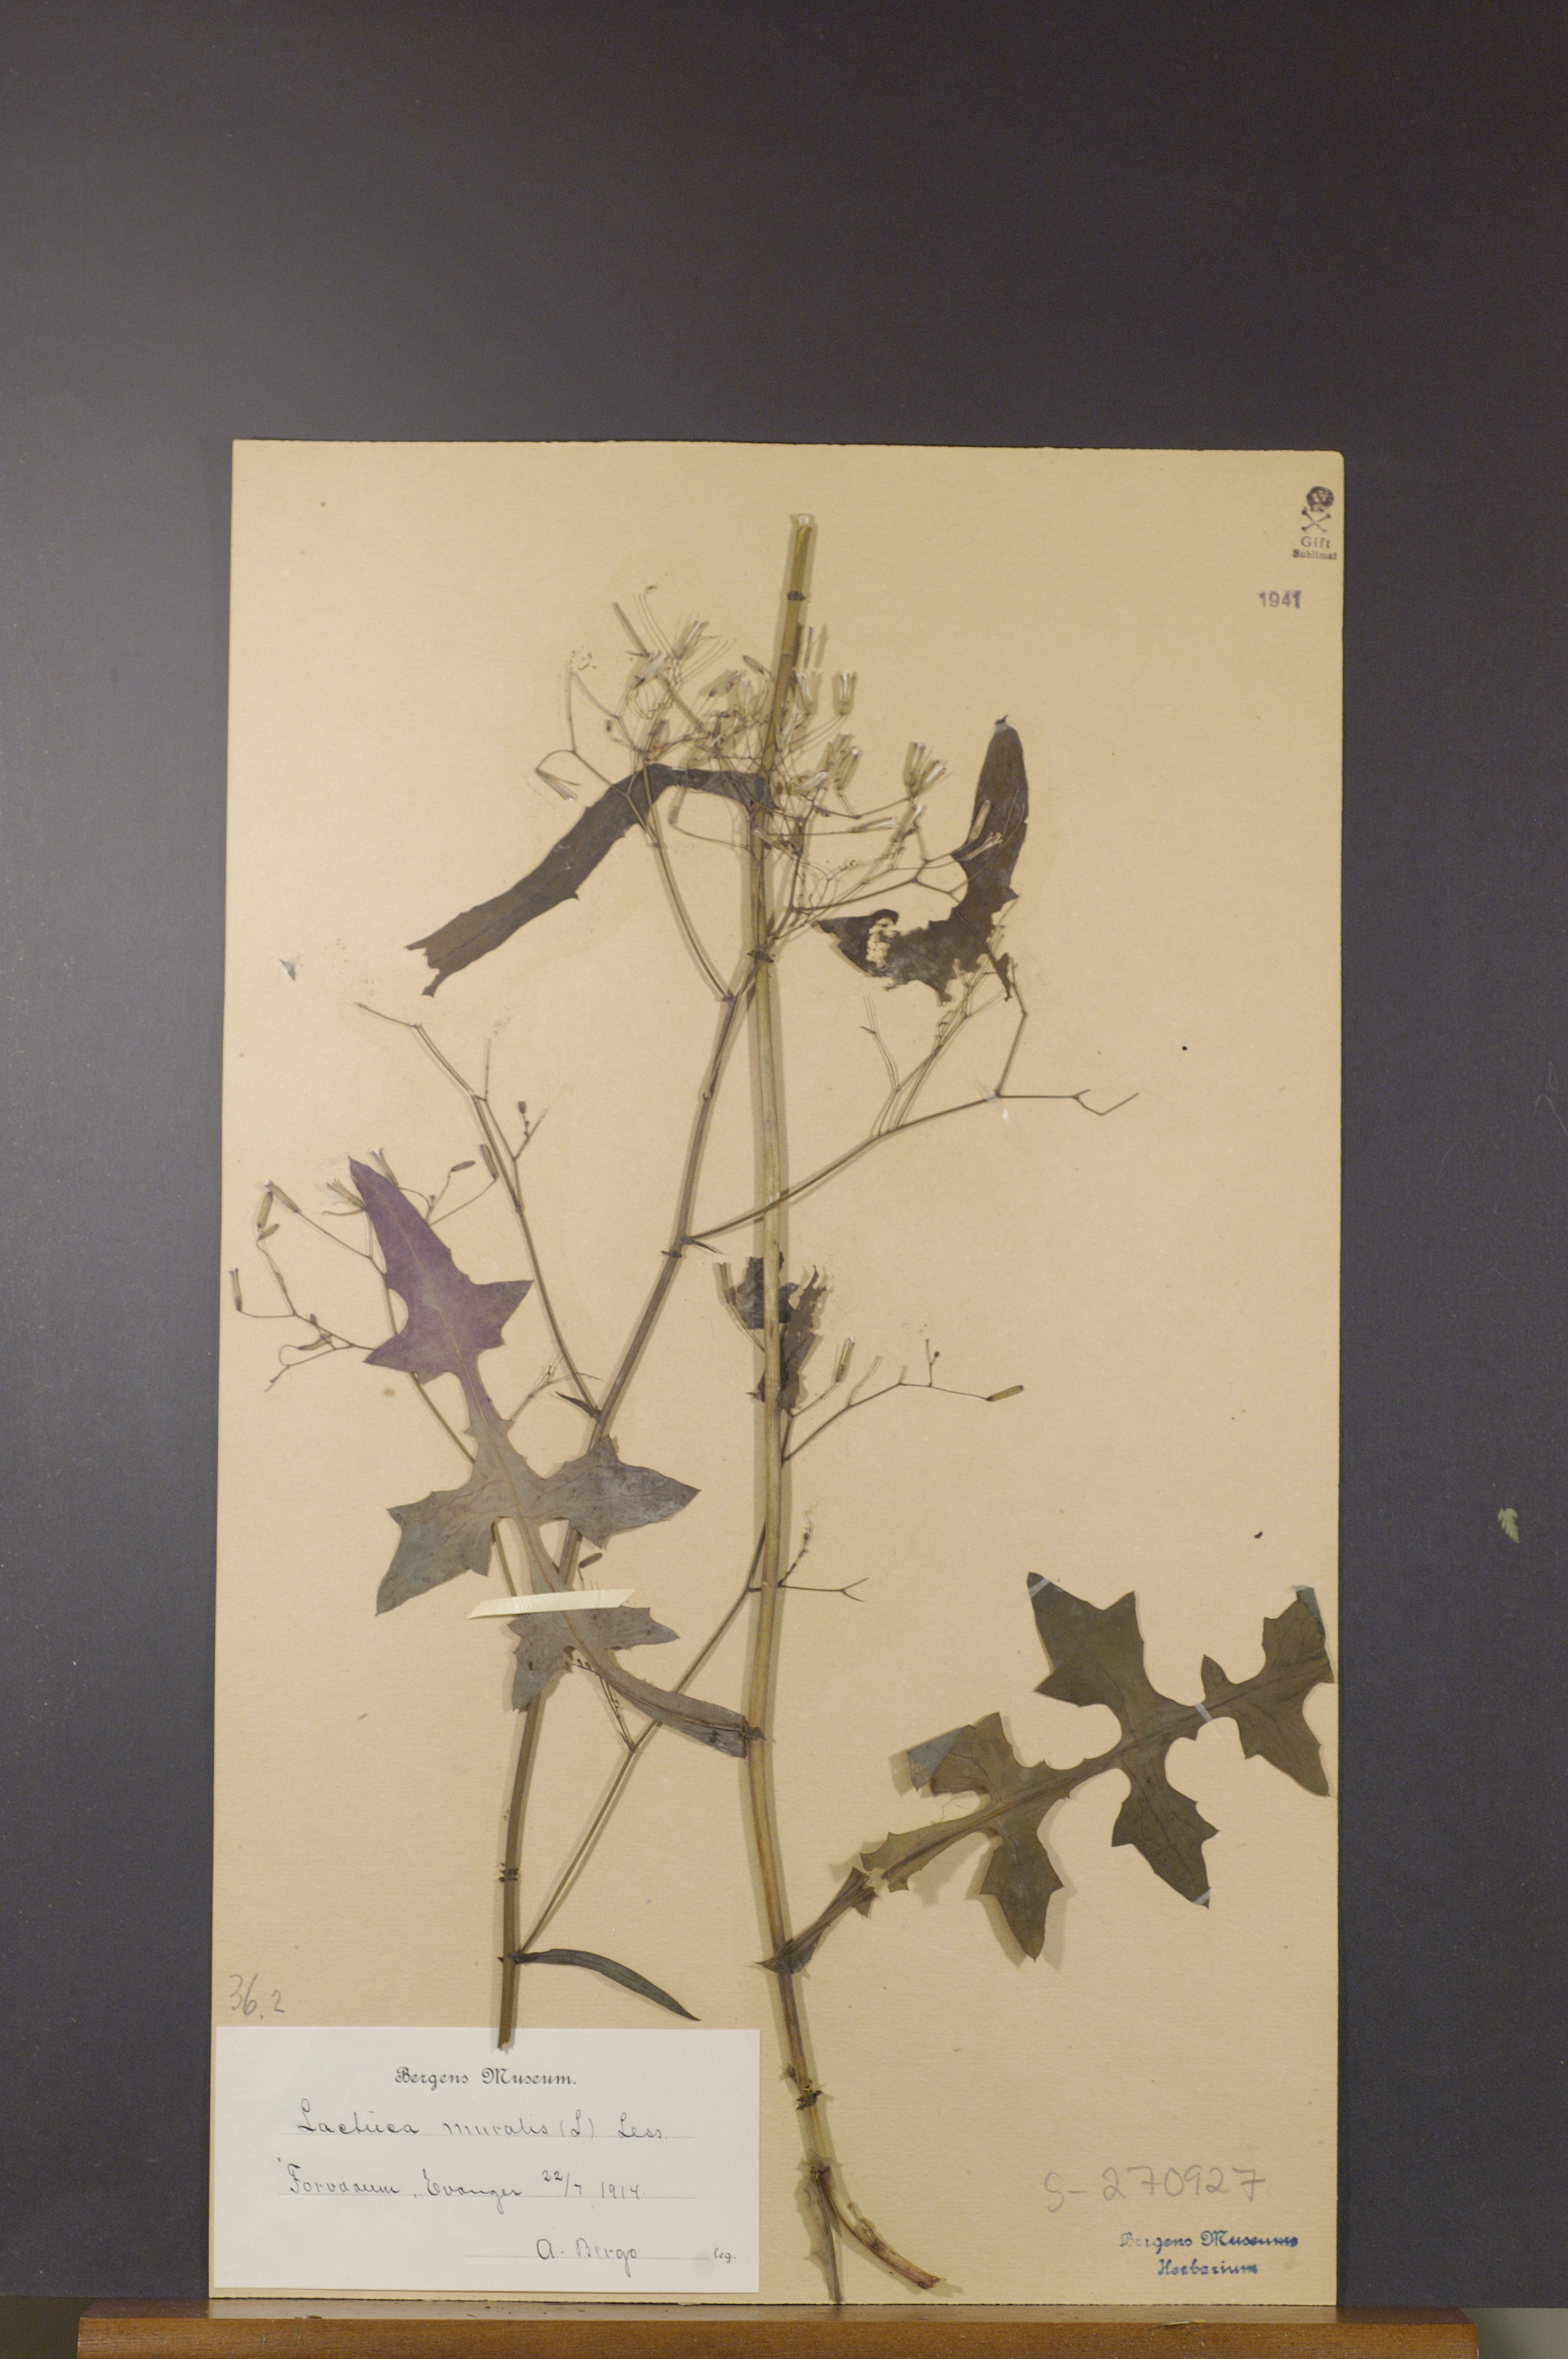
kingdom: Plantae
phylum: Tracheophyta
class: Magnoliopsida
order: Asterales
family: Asteraceae
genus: Mycelis
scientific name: Mycelis muralis
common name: Wall lettuce
